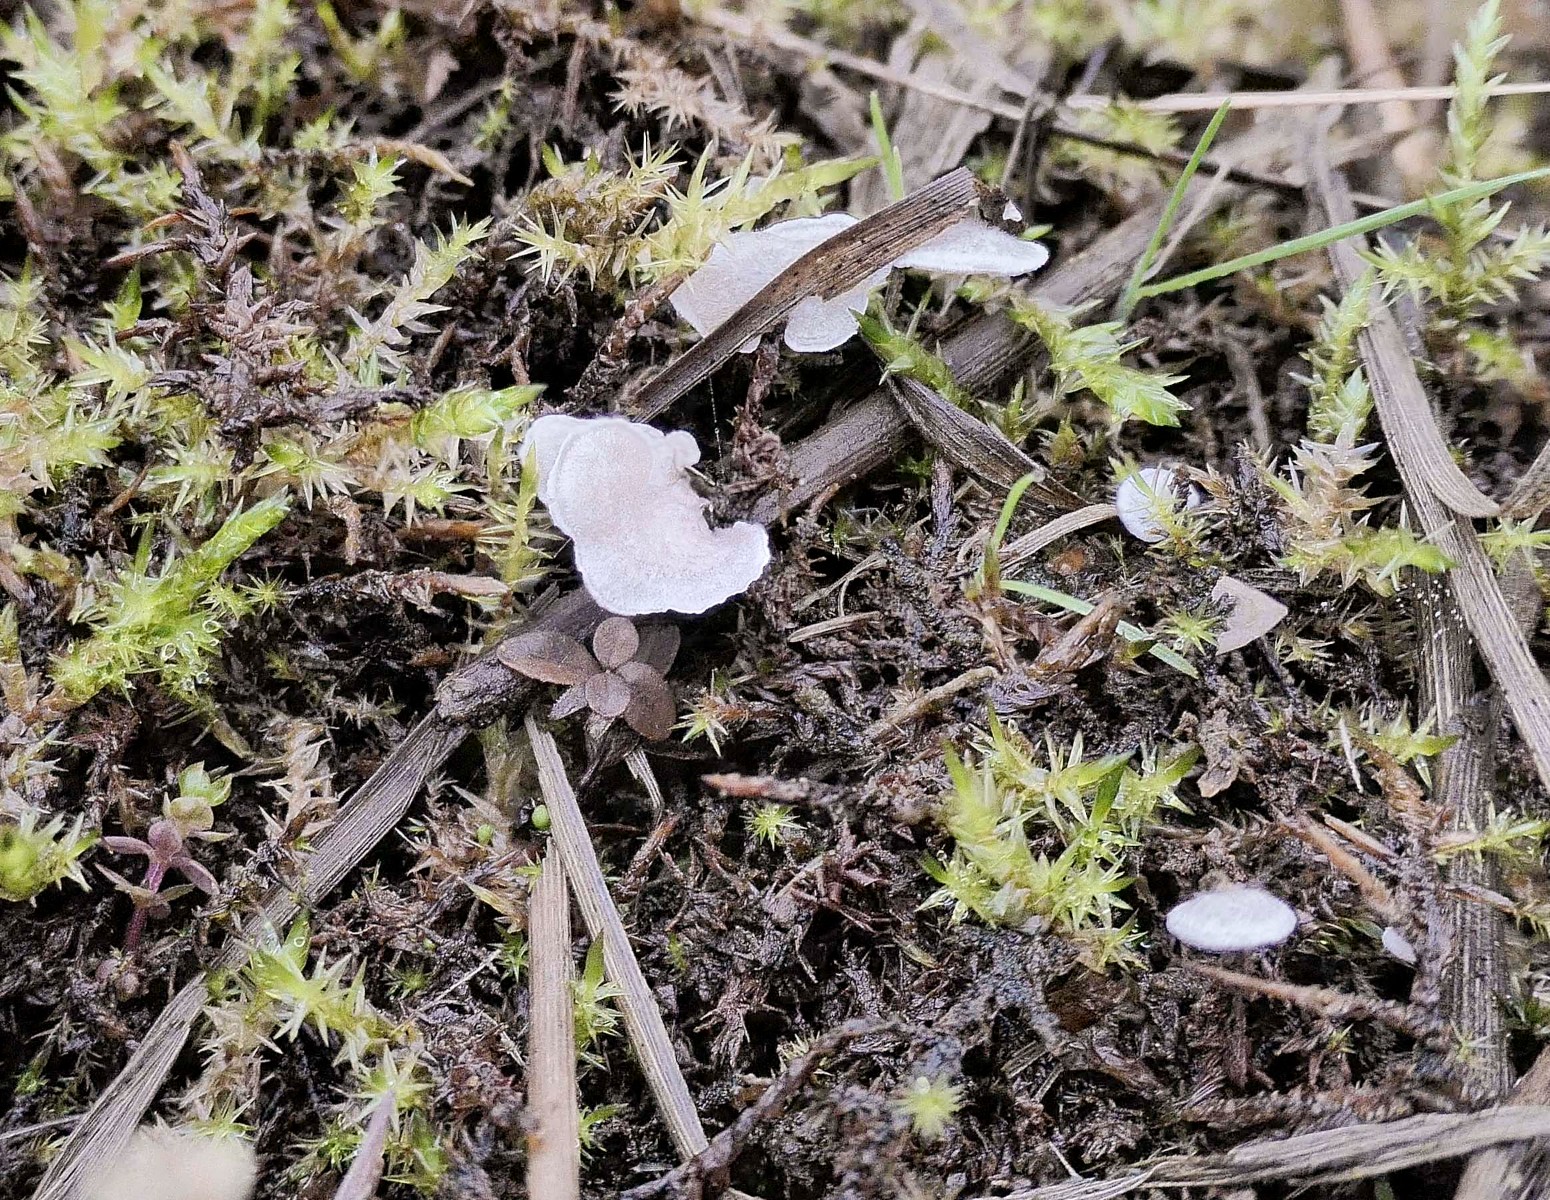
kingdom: Fungi
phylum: Basidiomycota
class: Agaricomycetes
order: Agaricales
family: Hygrophoraceae
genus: Arrhenia
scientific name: Arrhenia retiruga
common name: lille fontænehat
